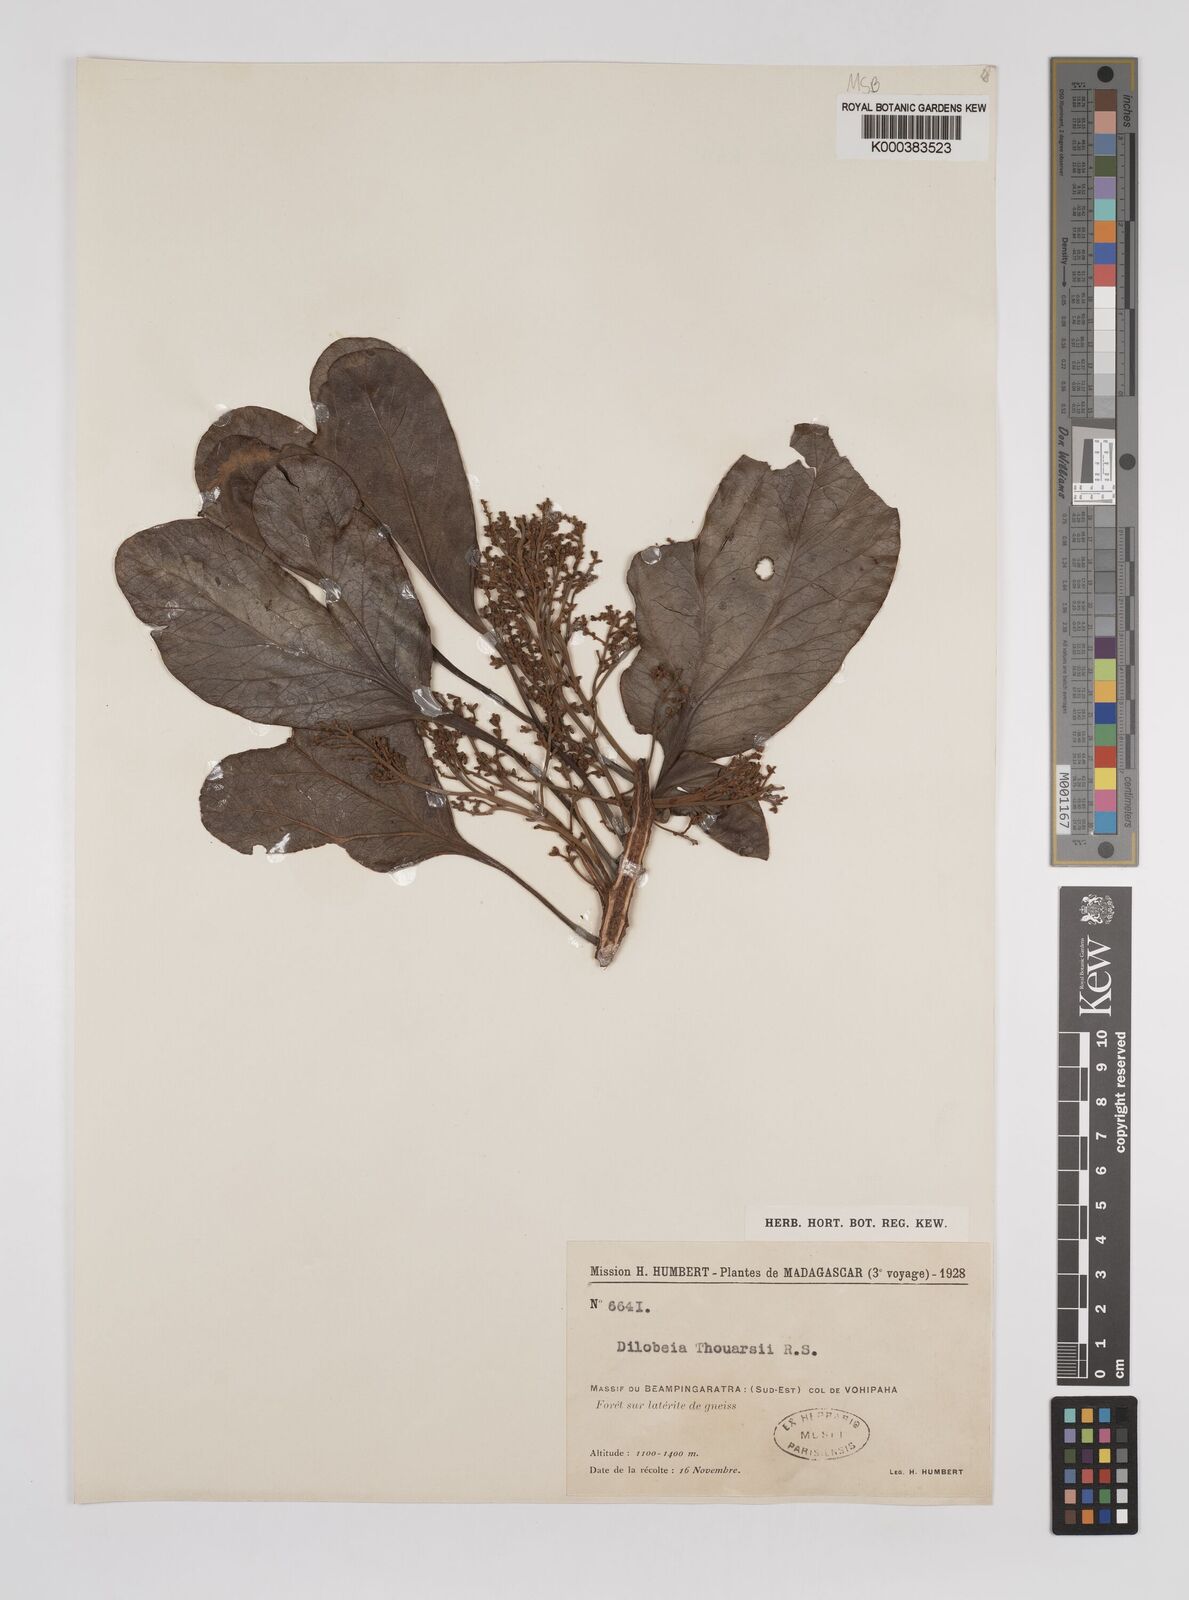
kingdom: Plantae
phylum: Tracheophyta
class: Magnoliopsida
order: Proteales
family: Proteaceae
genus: Dilobeia
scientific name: Dilobeia thouarsii
